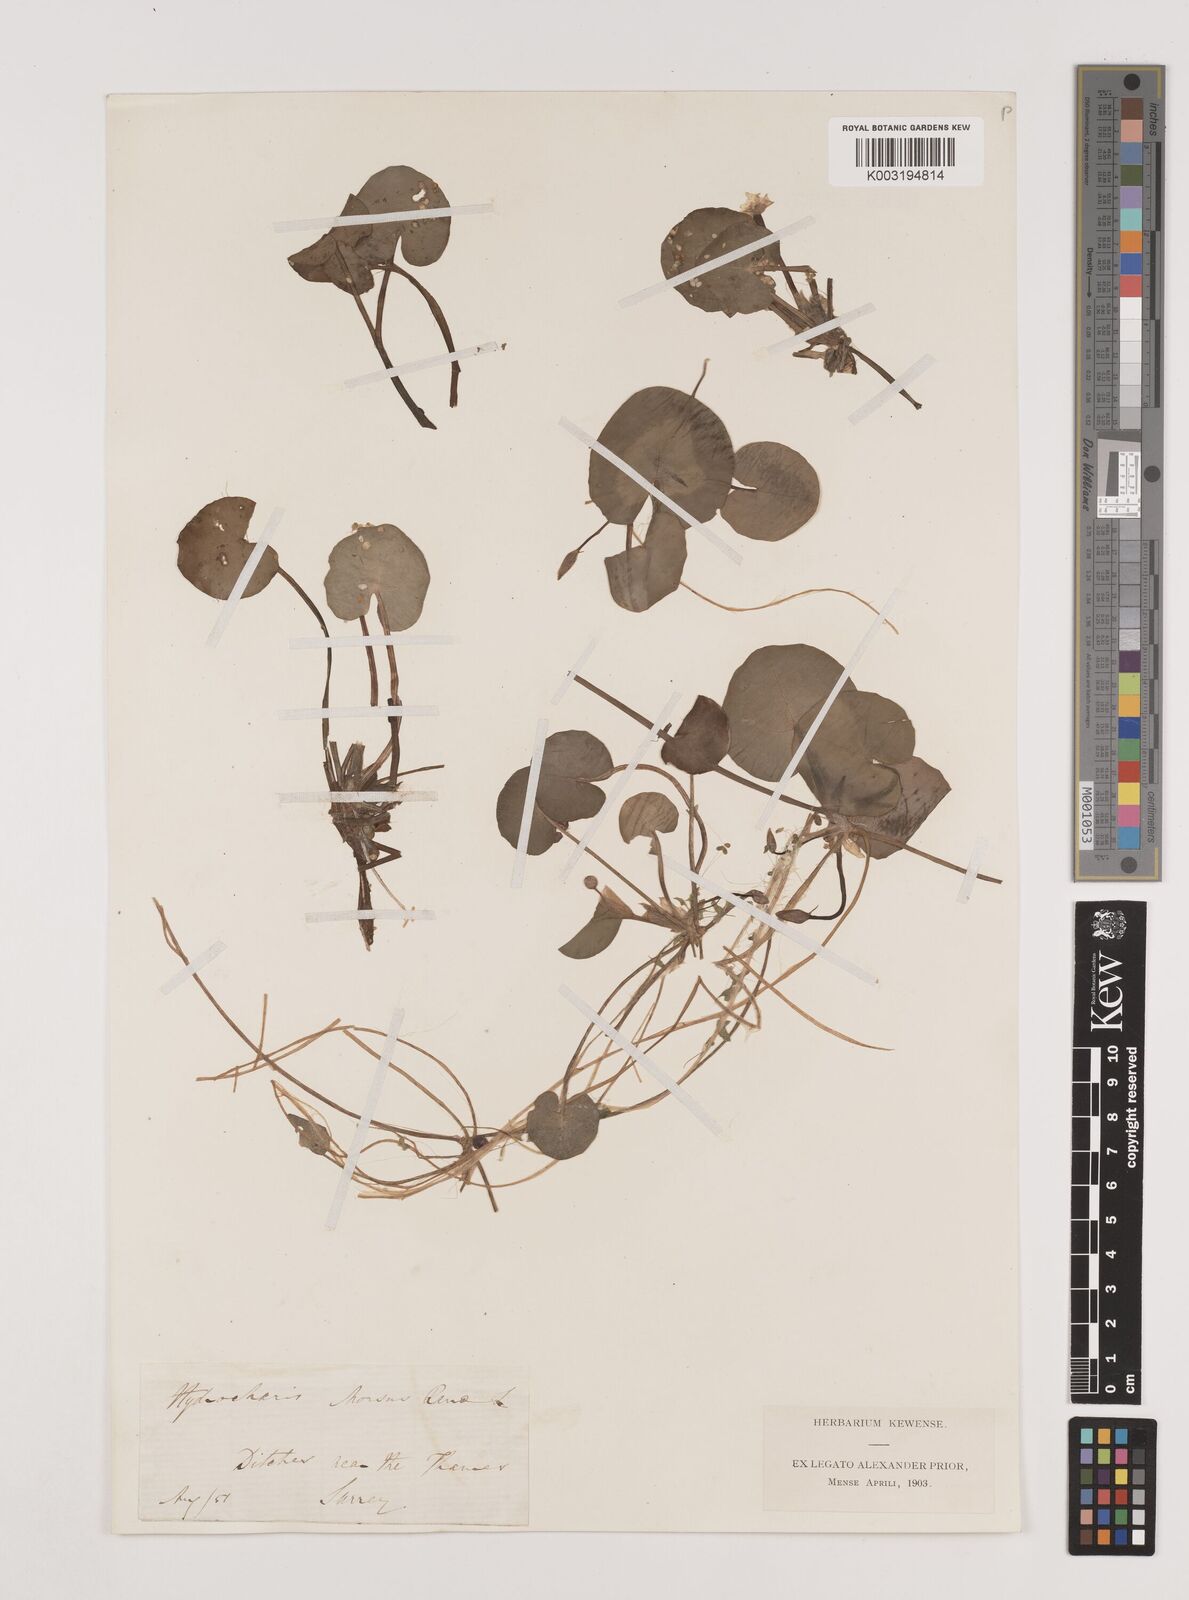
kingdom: Plantae
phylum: Tracheophyta
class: Liliopsida
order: Alismatales
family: Hydrocharitaceae
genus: Hydrocharis
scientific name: Hydrocharis morsus-ranae
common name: Frogbit
